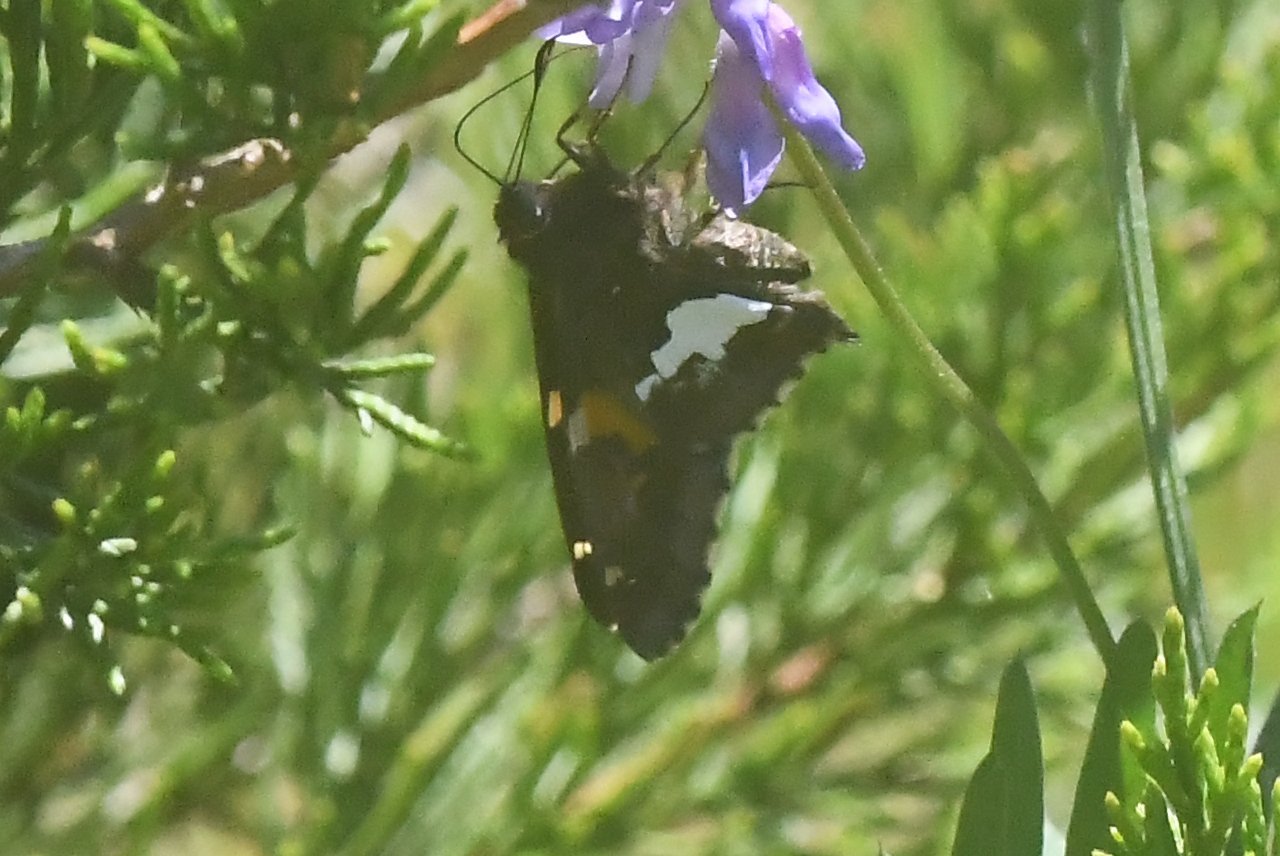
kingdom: Animalia
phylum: Arthropoda
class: Insecta
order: Lepidoptera
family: Hesperiidae
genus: Epargyreus
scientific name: Epargyreus clarus
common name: Silver-spotted Skipper
